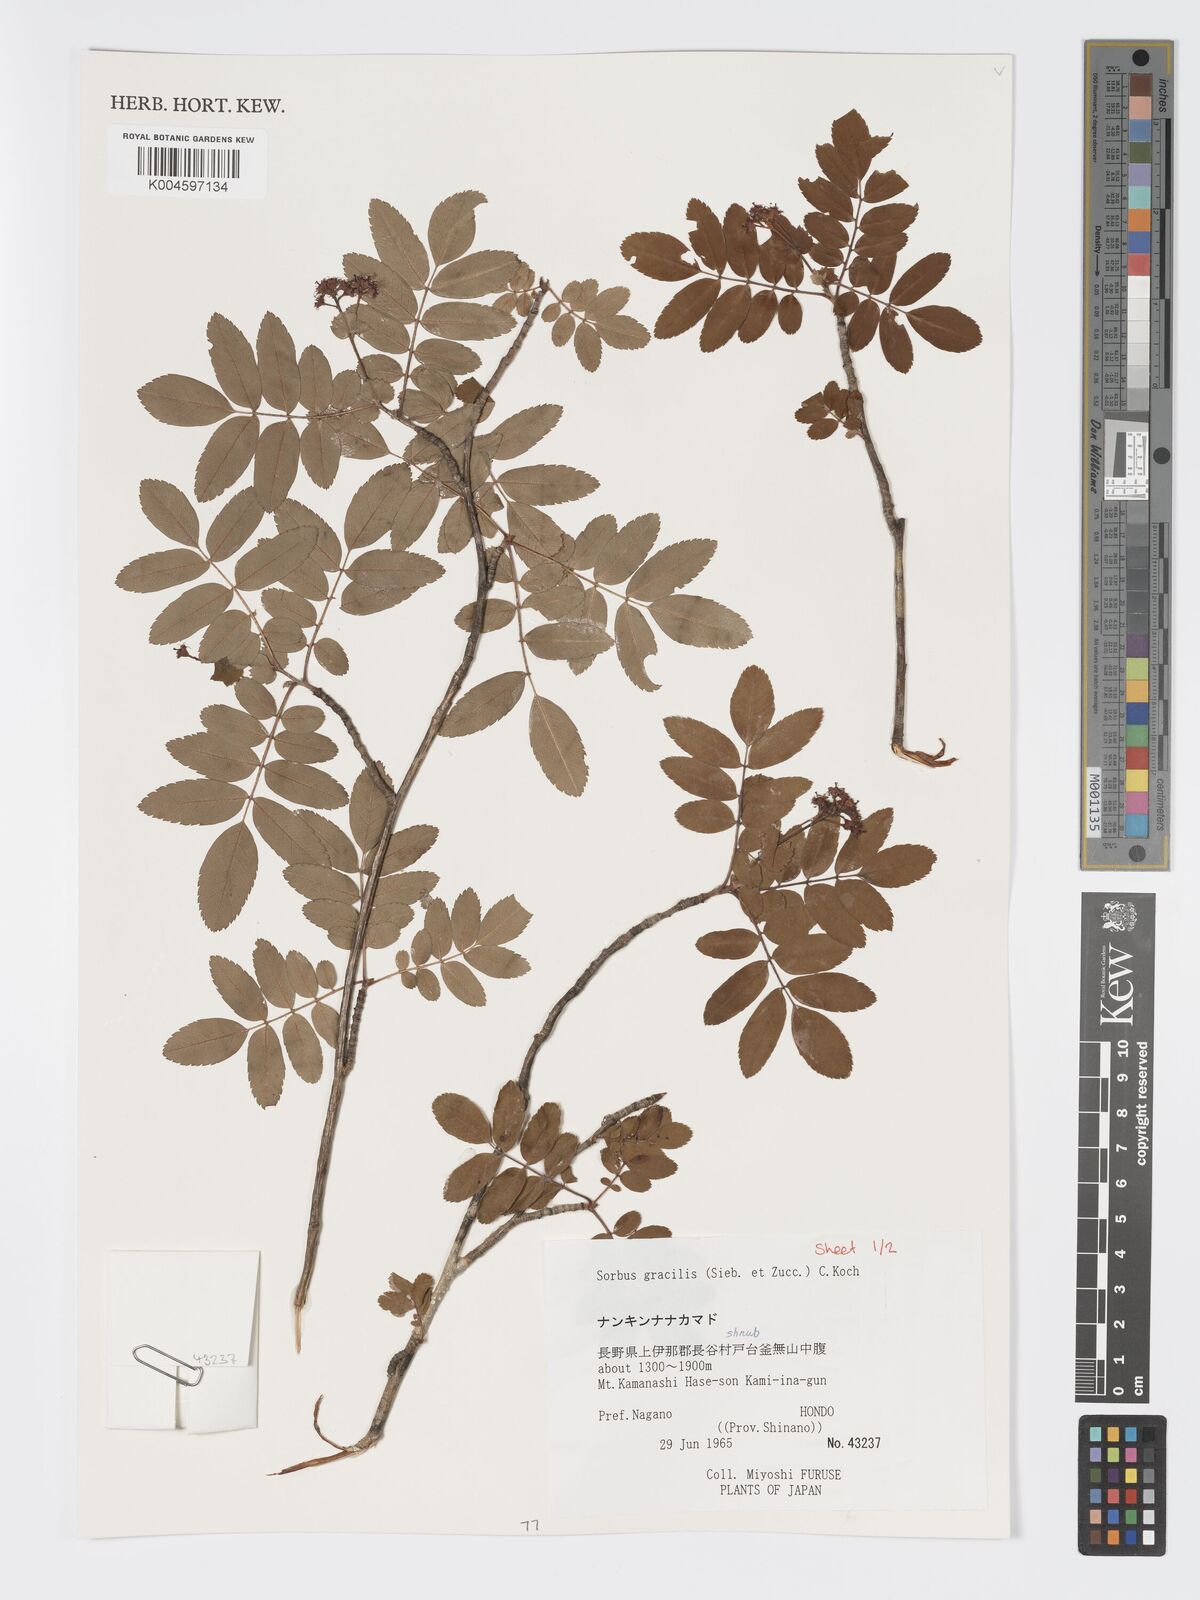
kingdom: Plantae
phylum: Tracheophyta
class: Magnoliopsida
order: Rosales
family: Rosaceae
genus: Sorbus
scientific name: Sorbus gracilis
